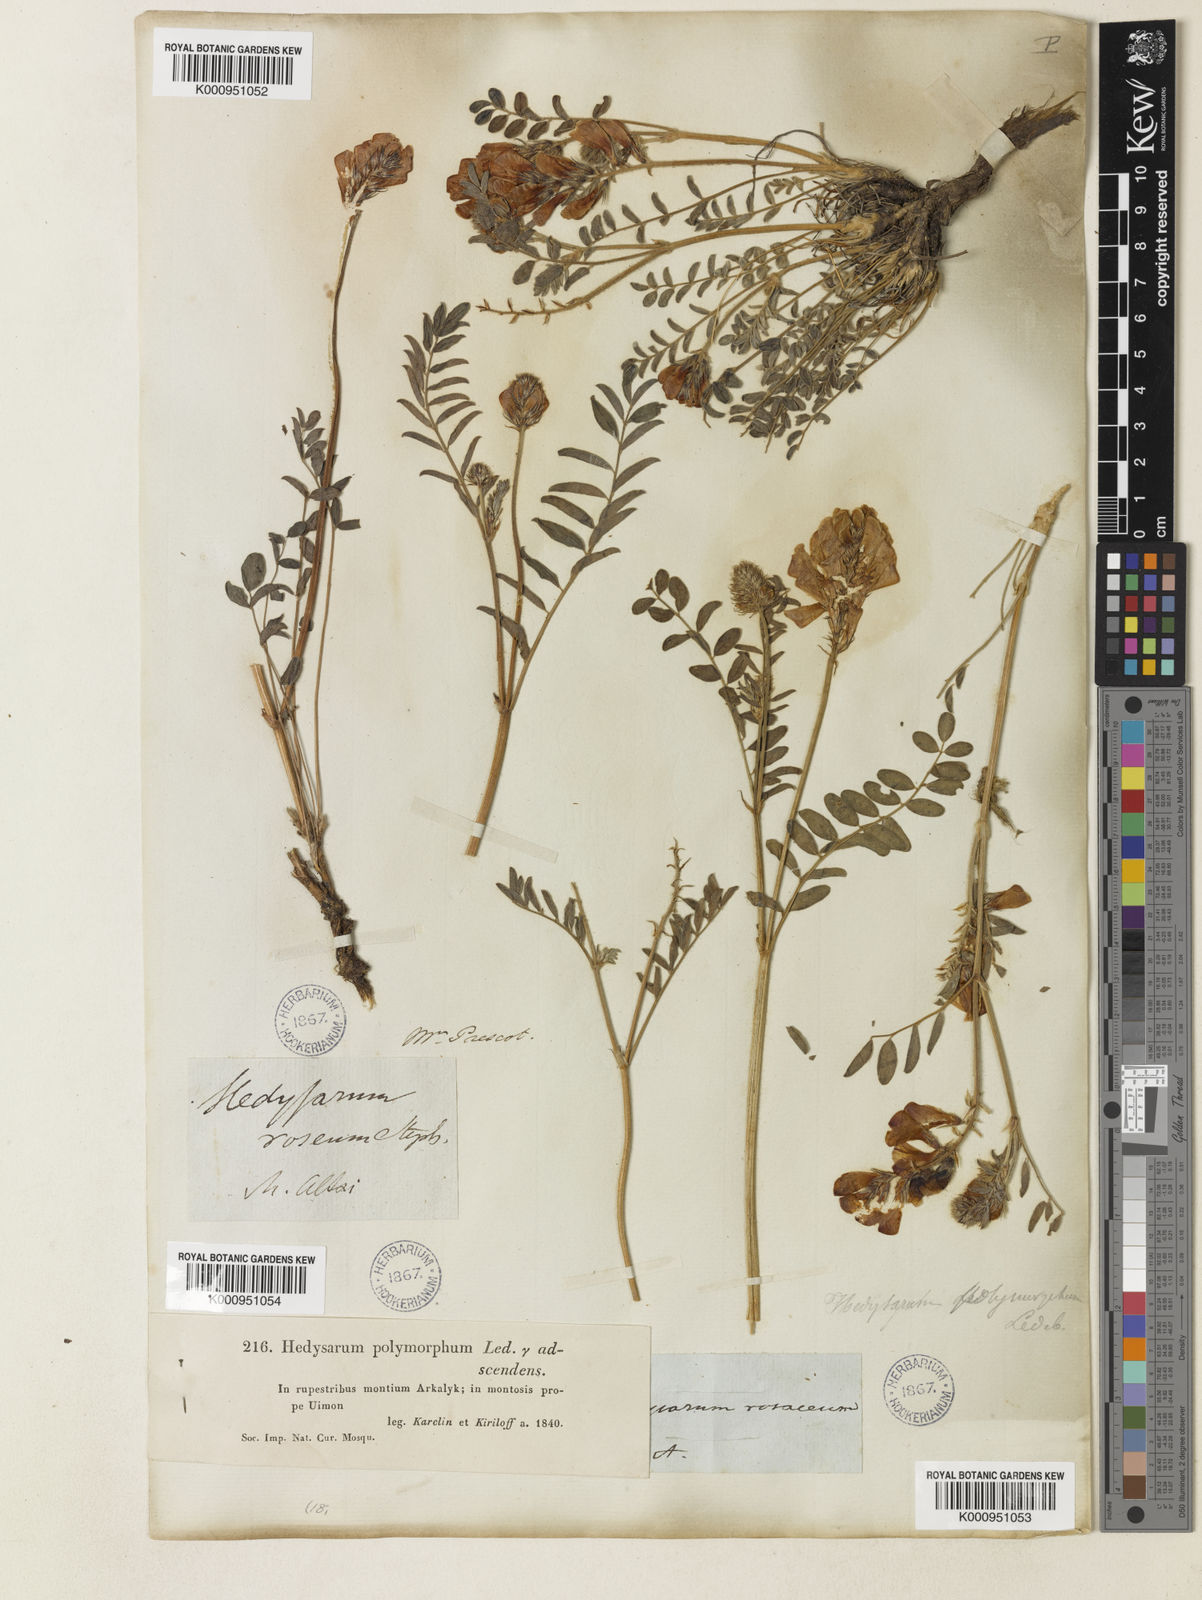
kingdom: Plantae
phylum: Tracheophyta
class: Magnoliopsida
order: Fabales
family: Fabaceae
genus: Hedysarum
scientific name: Hedysarum gmelinii
